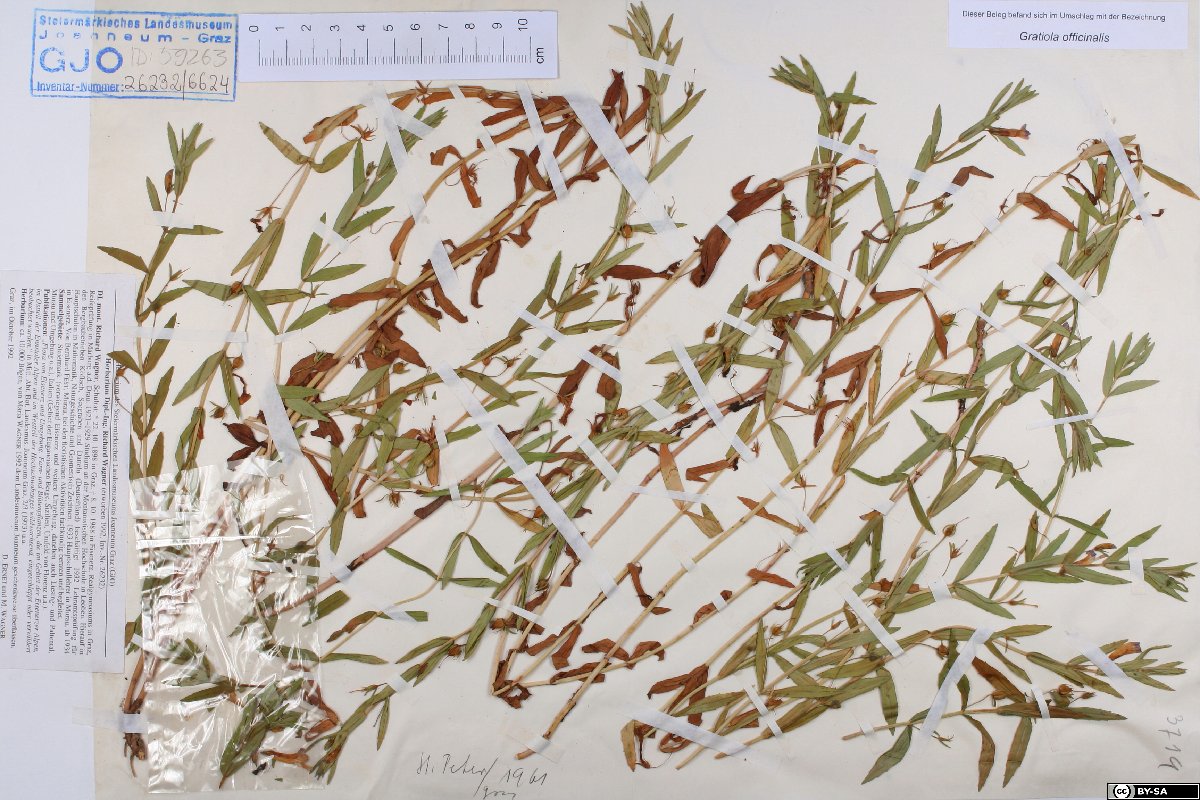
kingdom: Plantae
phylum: Tracheophyta
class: Magnoliopsida
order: Lamiales
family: Plantaginaceae
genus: Gratiola
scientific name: Gratiola officinalis
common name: Gratiola
